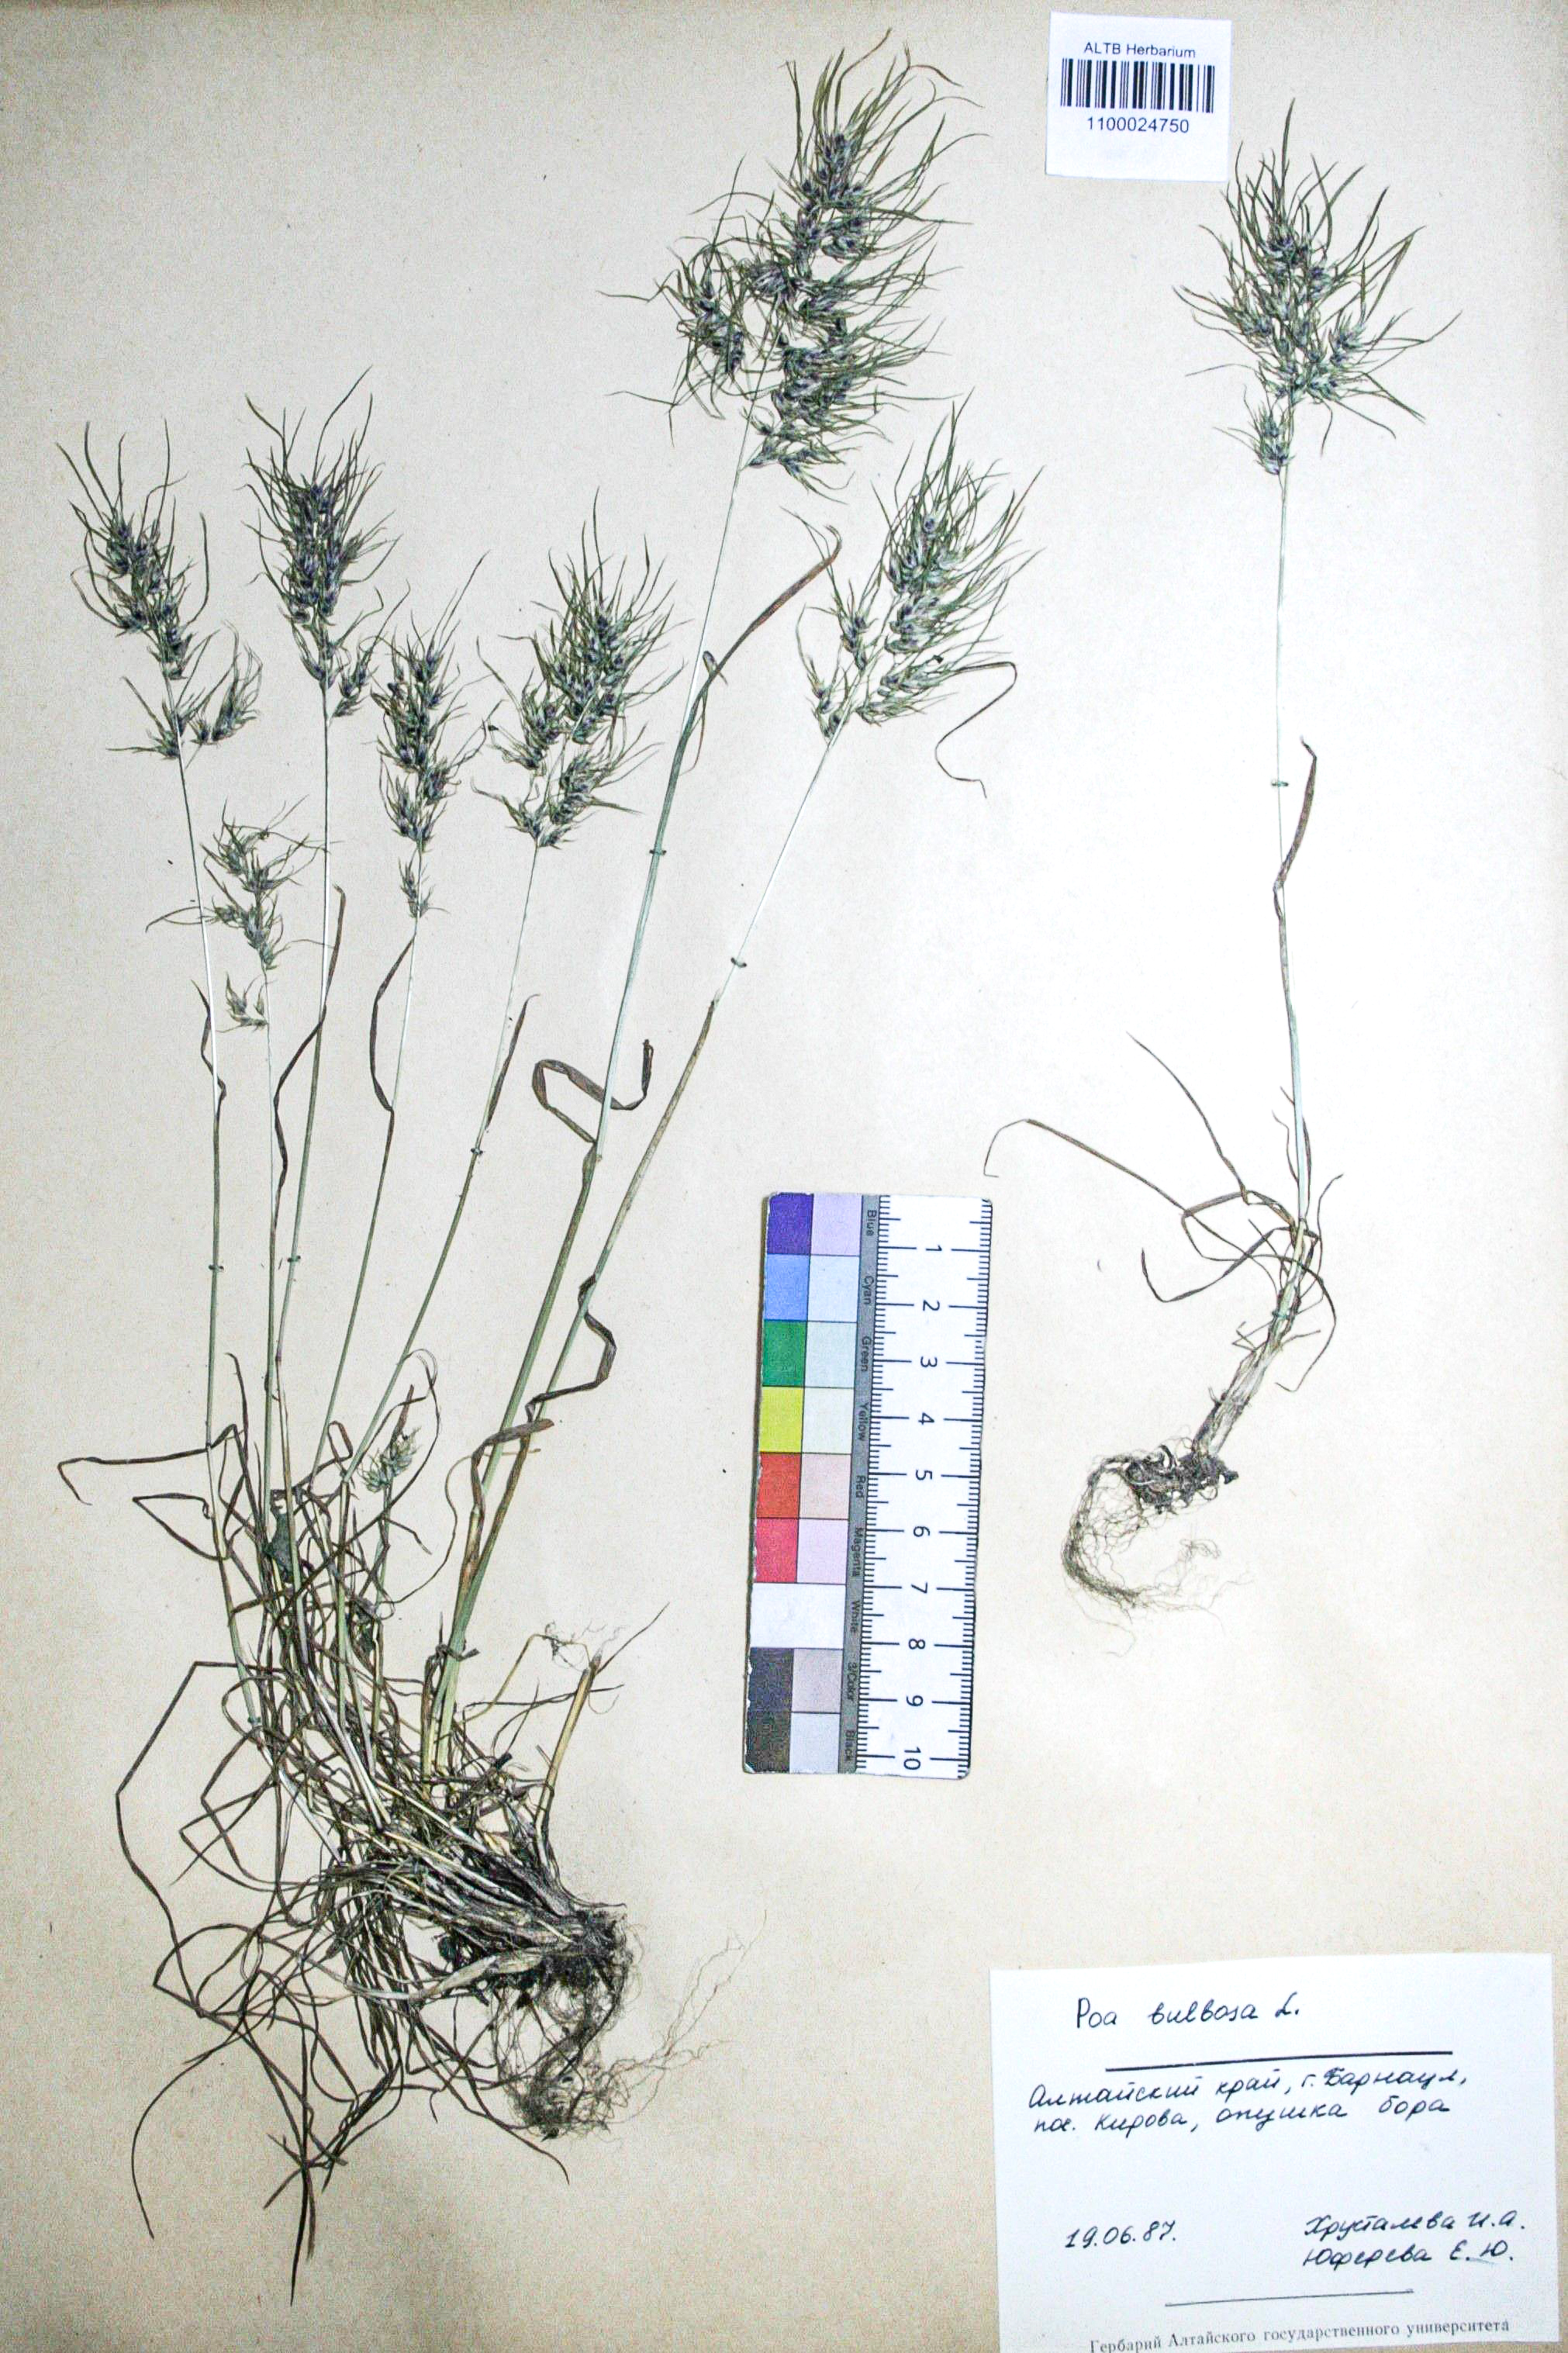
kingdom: Plantae
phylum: Tracheophyta
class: Liliopsida
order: Poales
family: Poaceae
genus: Poa
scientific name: Poa bulbosa
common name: Bulbous bluegrass
